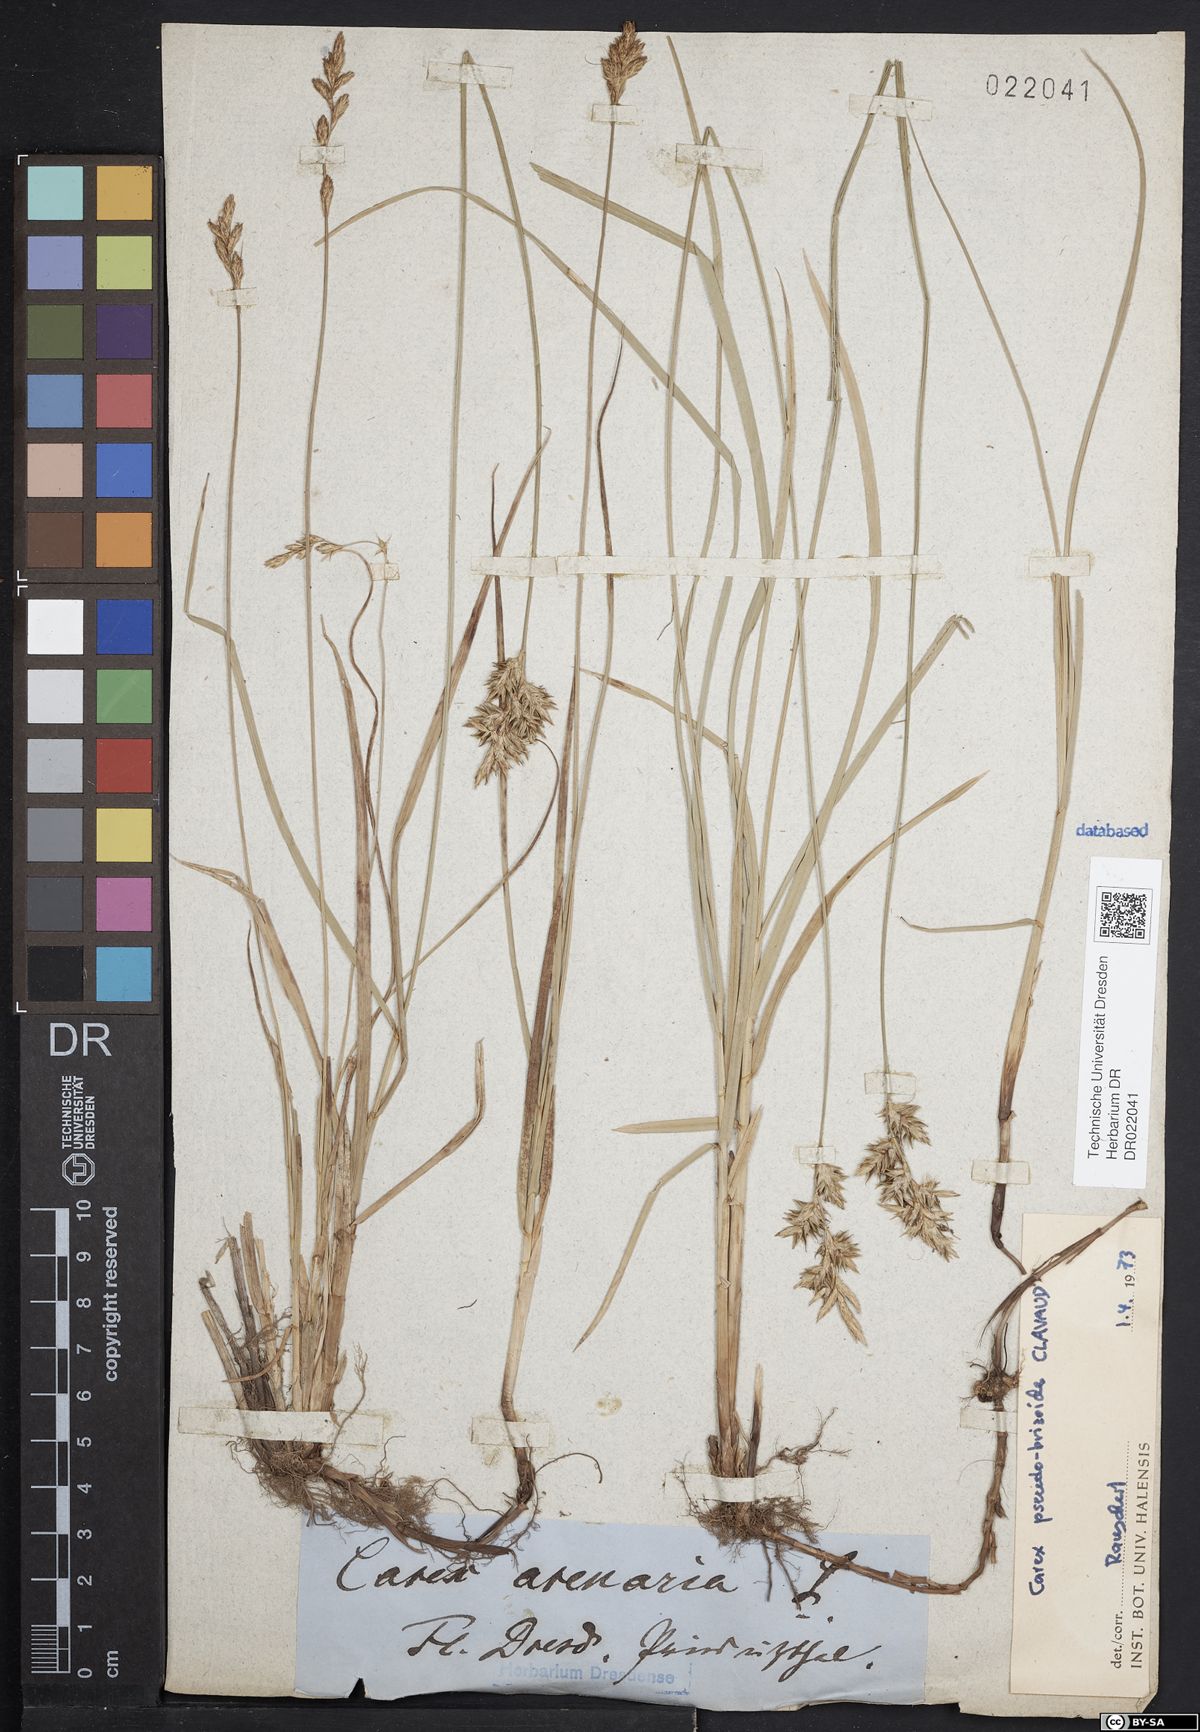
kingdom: Plantae
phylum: Tracheophyta
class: Liliopsida
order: Poales
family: Cyperaceae
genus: Carex
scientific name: Carex pseudobrizoides
